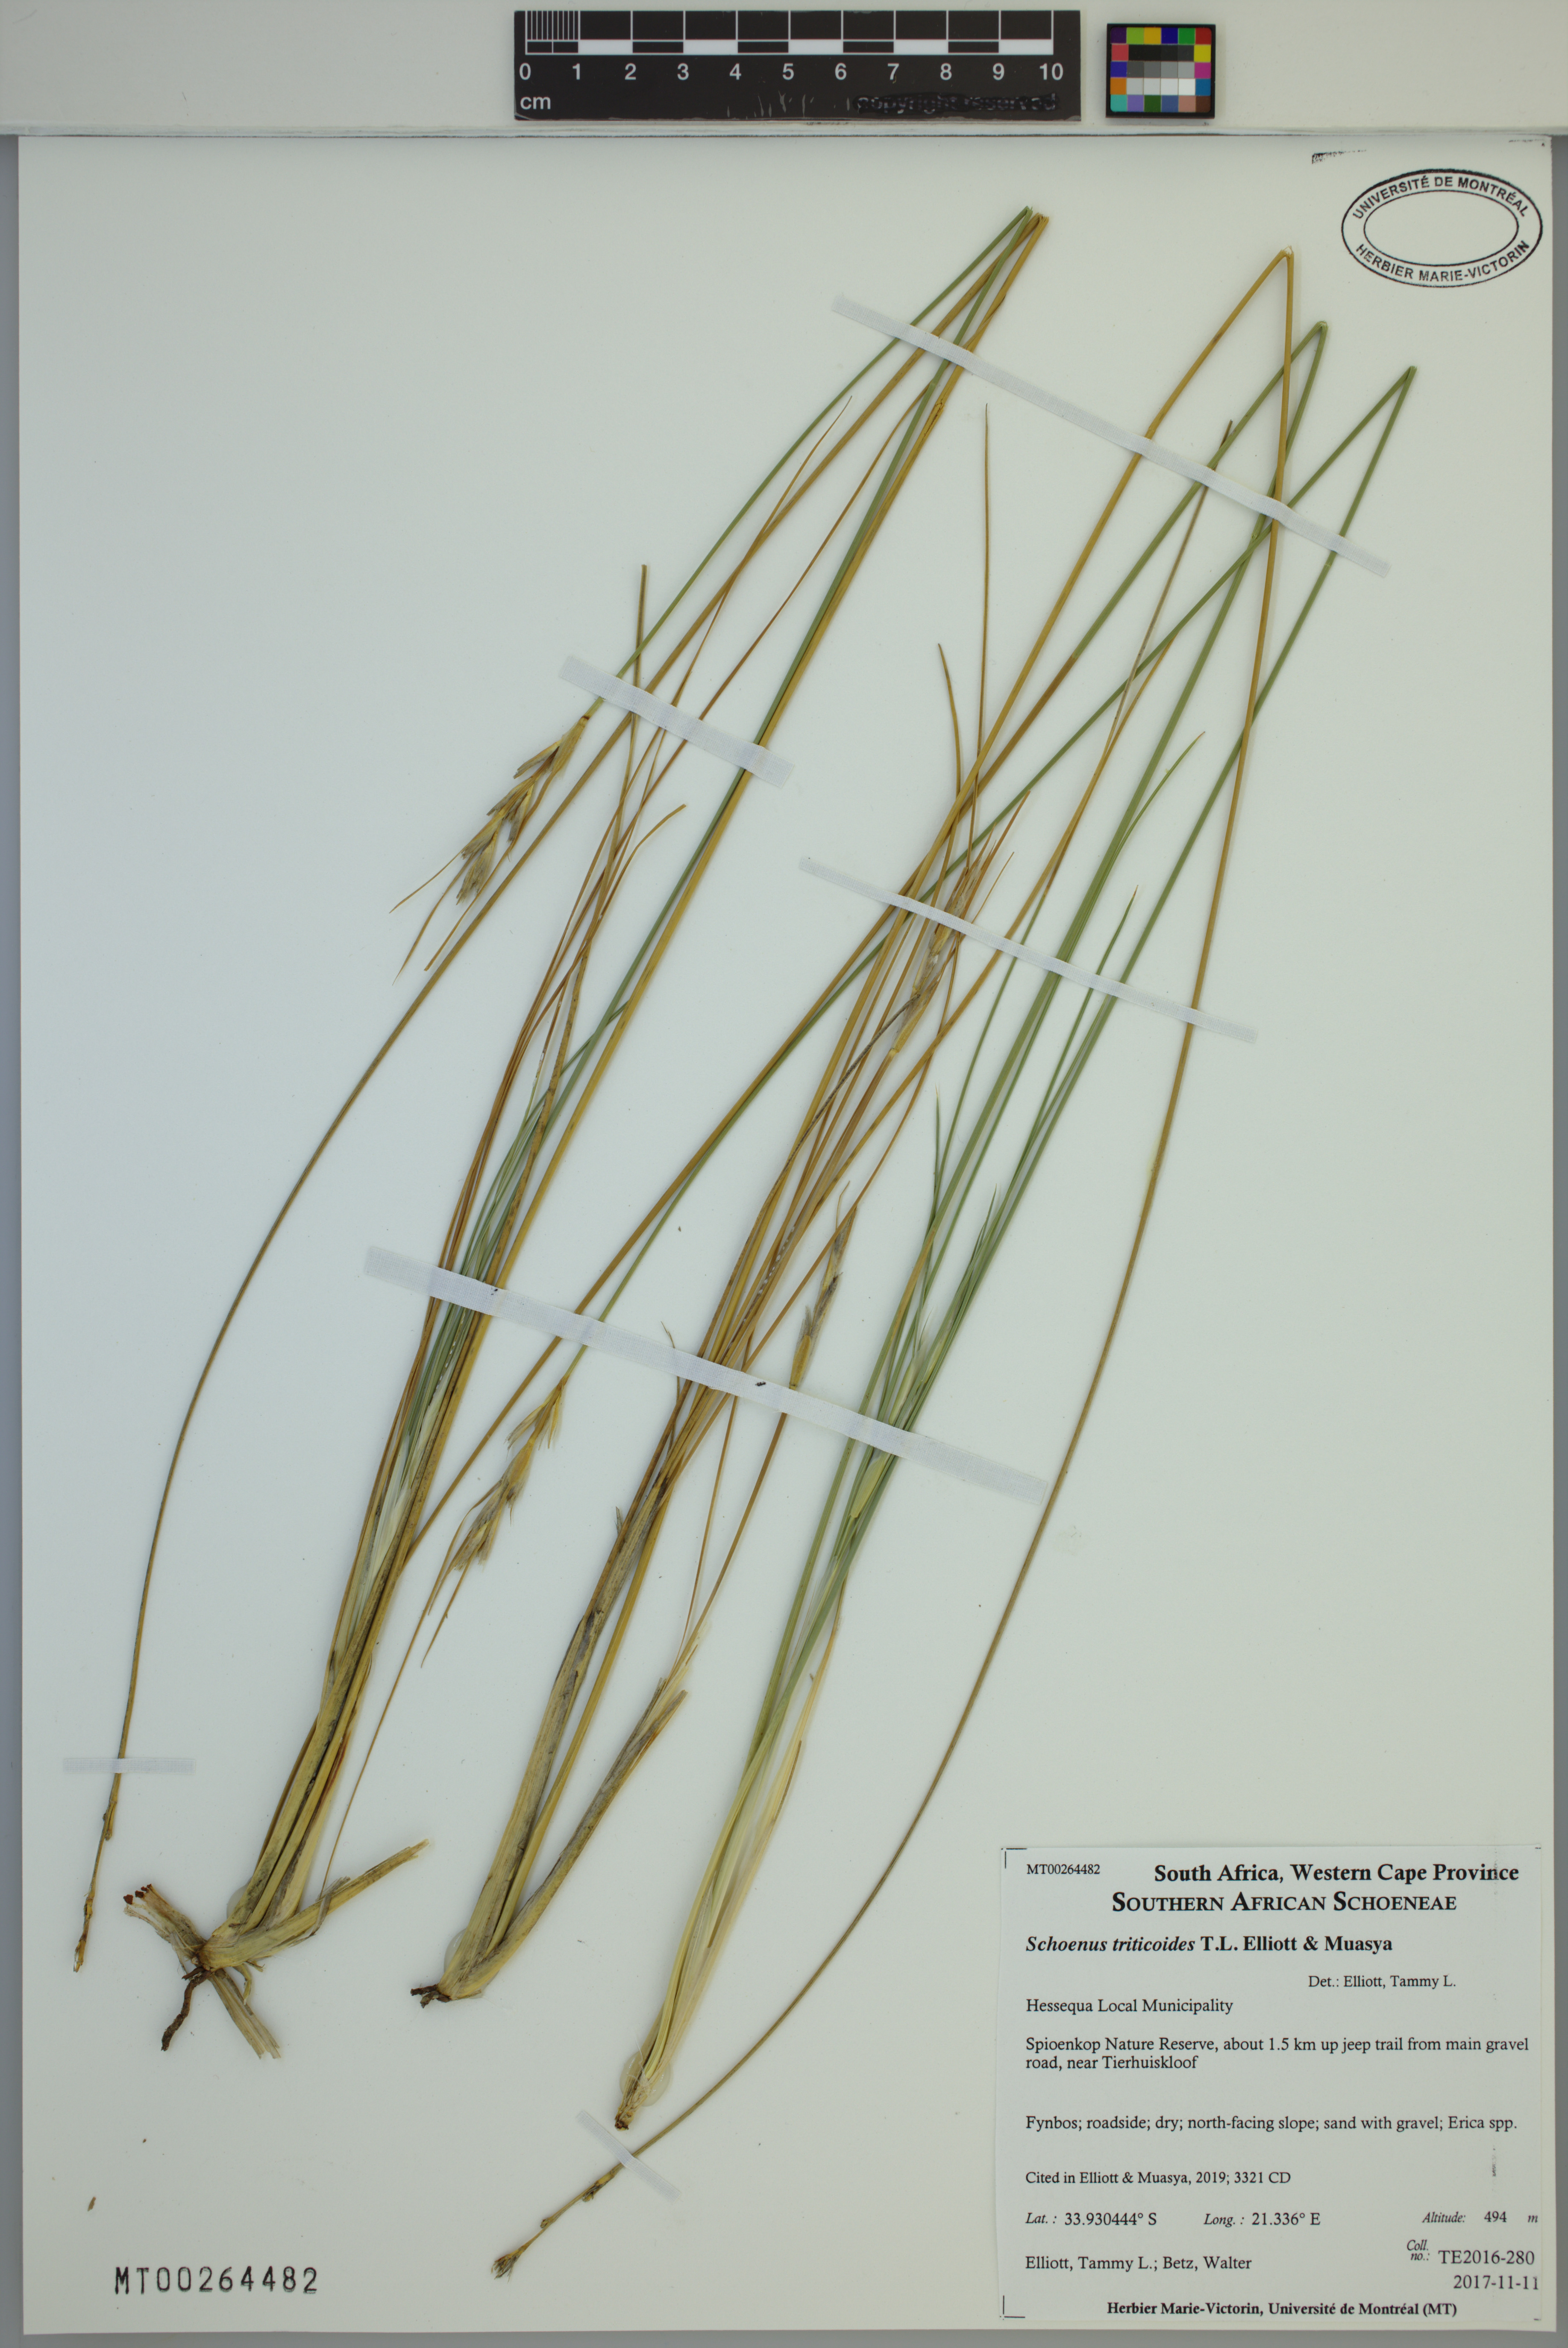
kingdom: Plantae
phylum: Tracheophyta
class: Liliopsida
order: Poales
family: Cyperaceae
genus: Schoenus
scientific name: Schoenus triticoides
